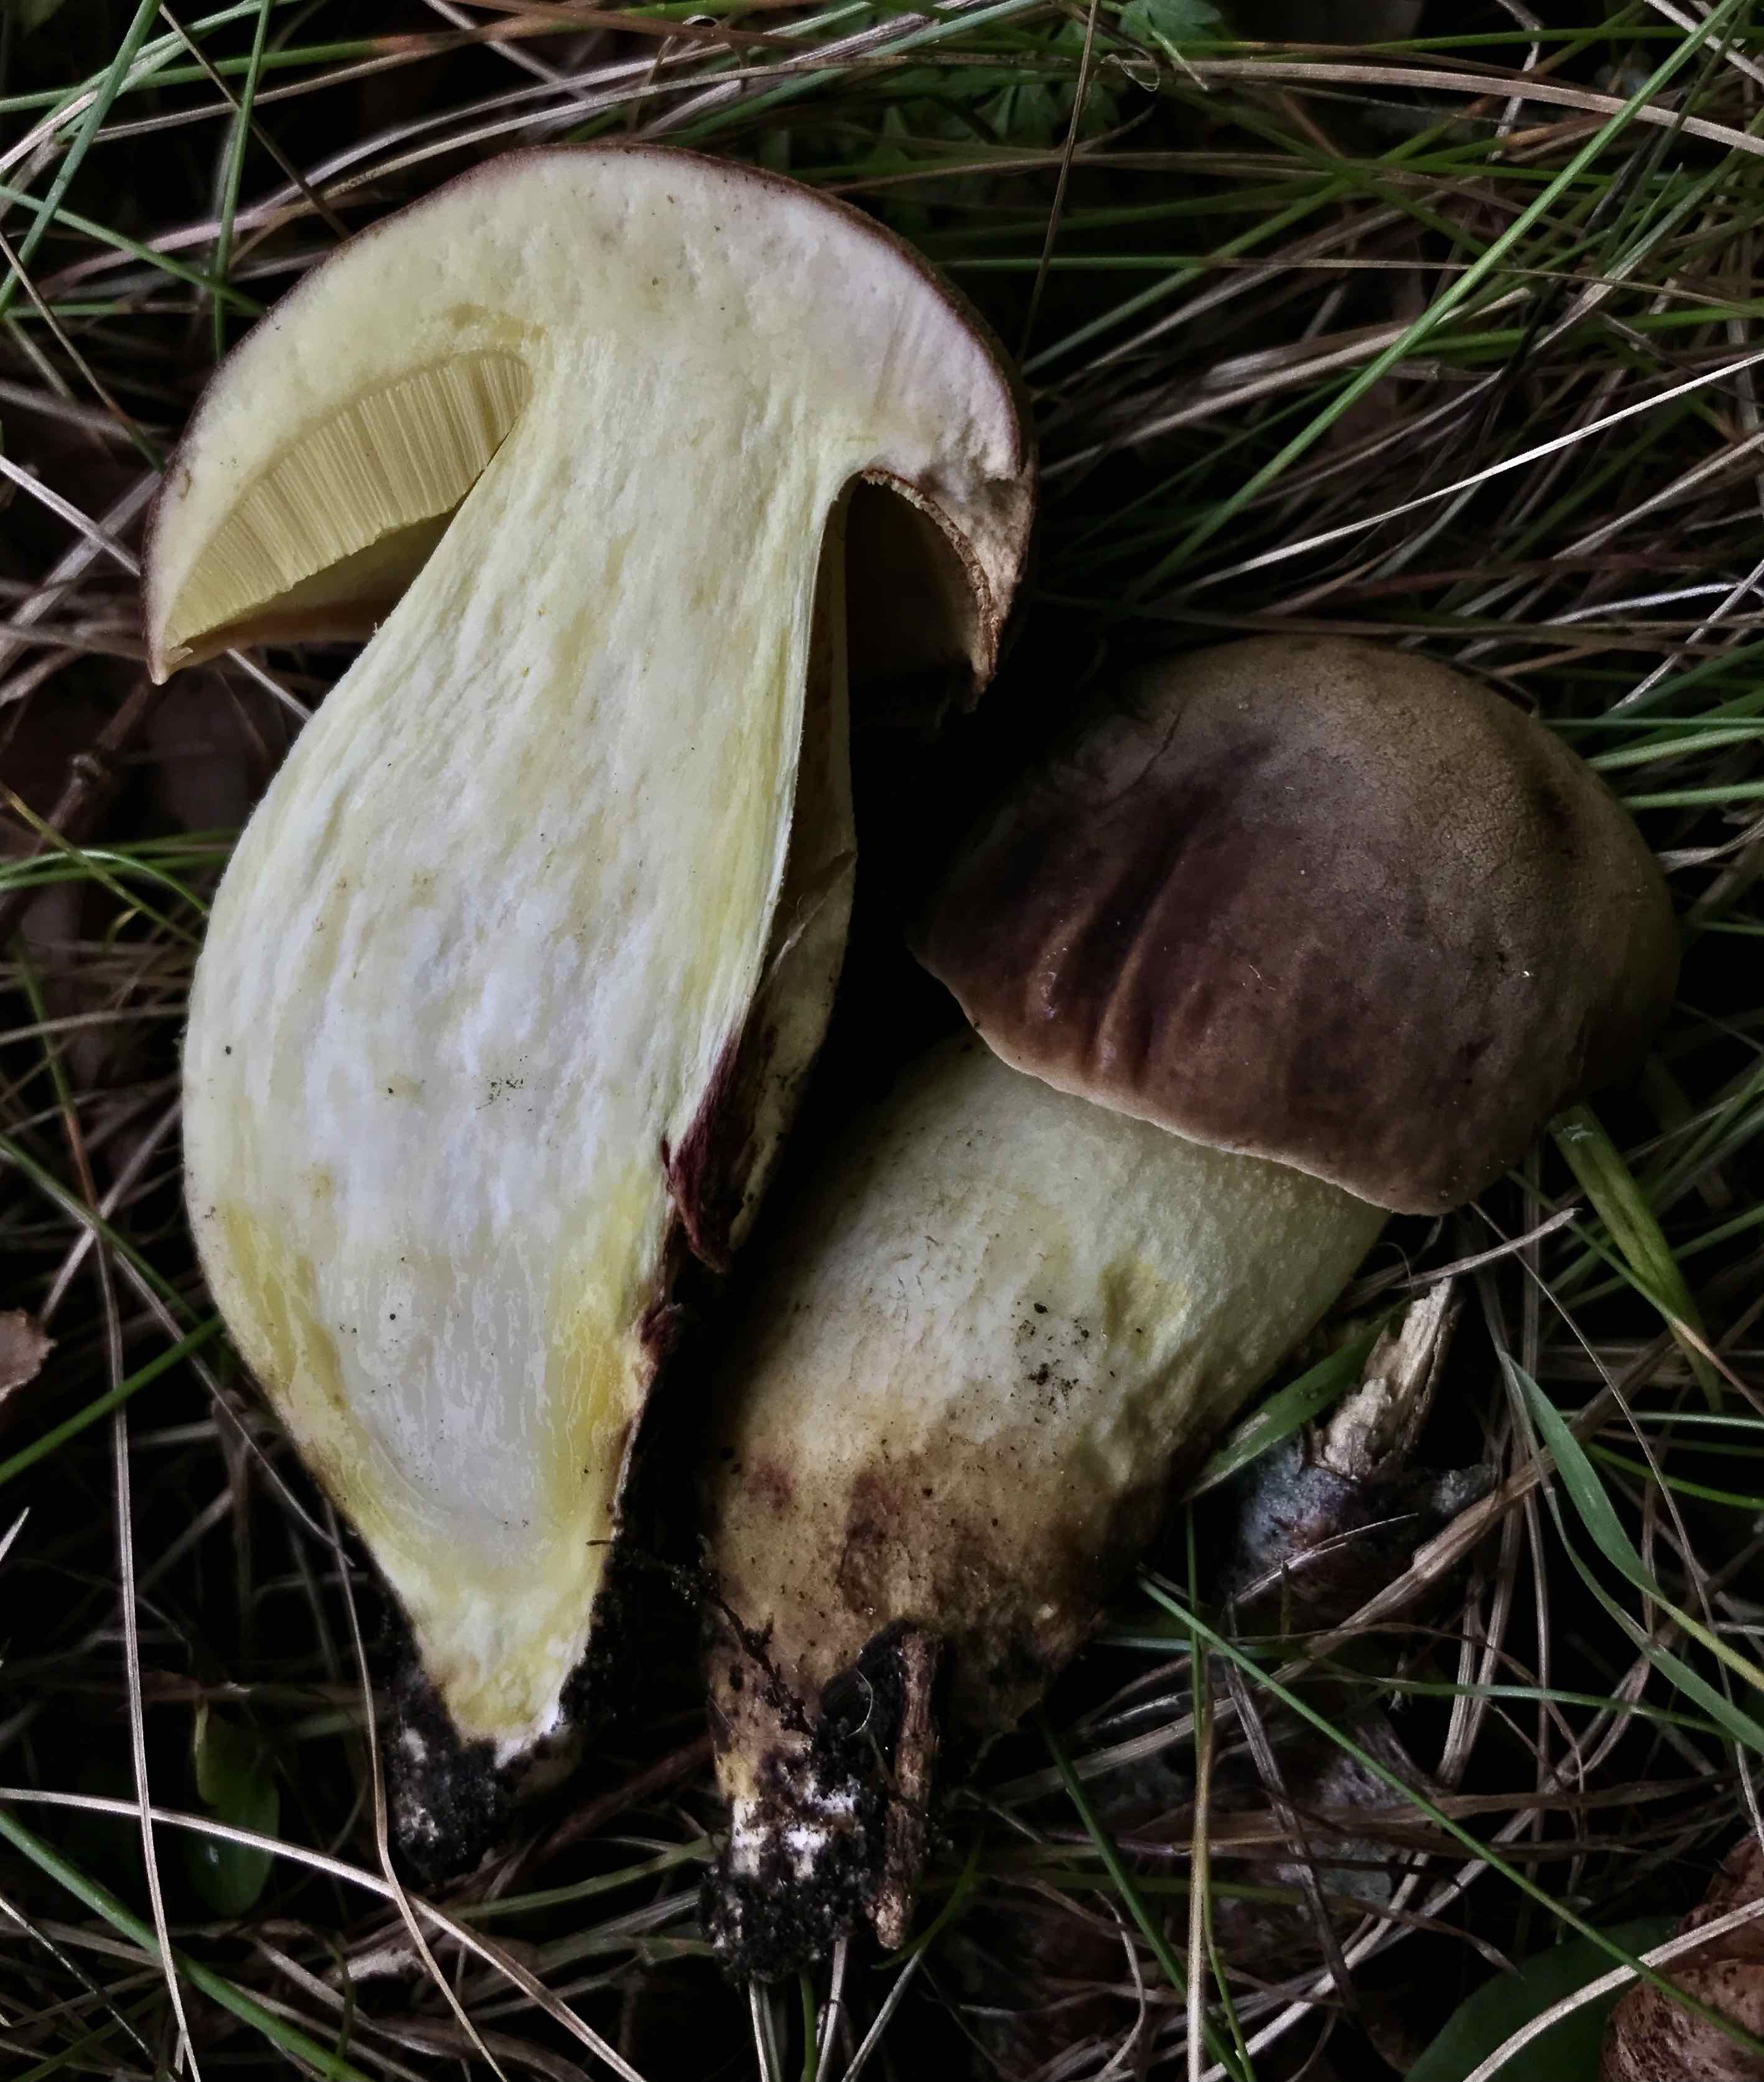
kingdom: Fungi
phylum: Basidiomycota
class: Agaricomycetes
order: Boletales
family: Boletaceae
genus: Butyriboletus
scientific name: Butyriboletus appendiculatus
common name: tenstokket rørhat
